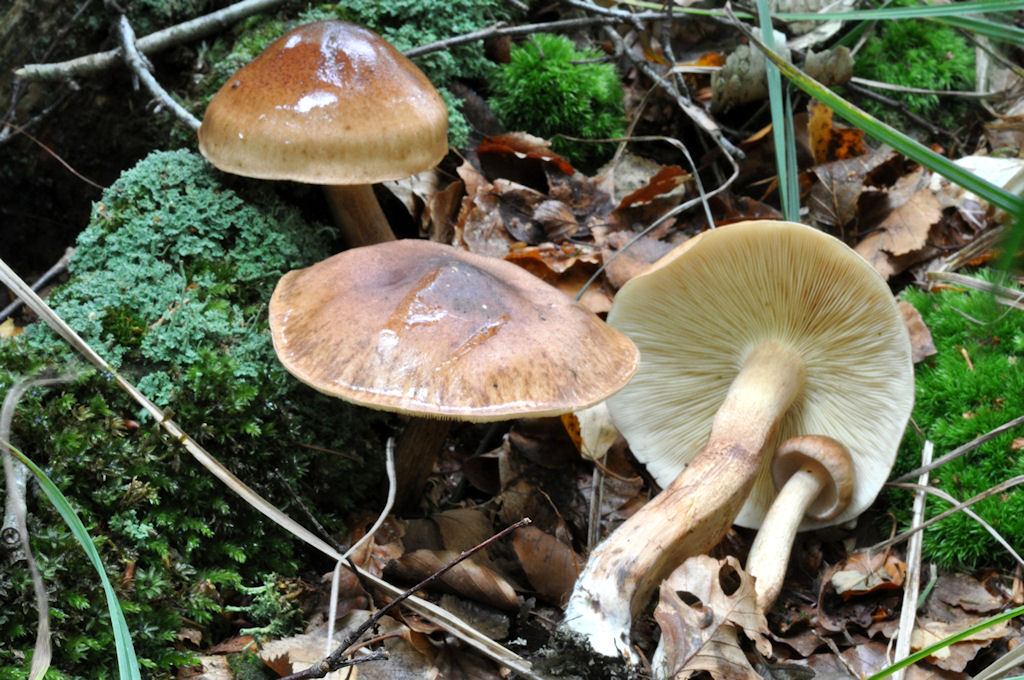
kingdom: Fungi
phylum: Basidiomycota
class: Agaricomycetes
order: Agaricales
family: Tricholomataceae
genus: Tricholoma
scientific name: Tricholoma fulvum
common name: birke-ridderhat
